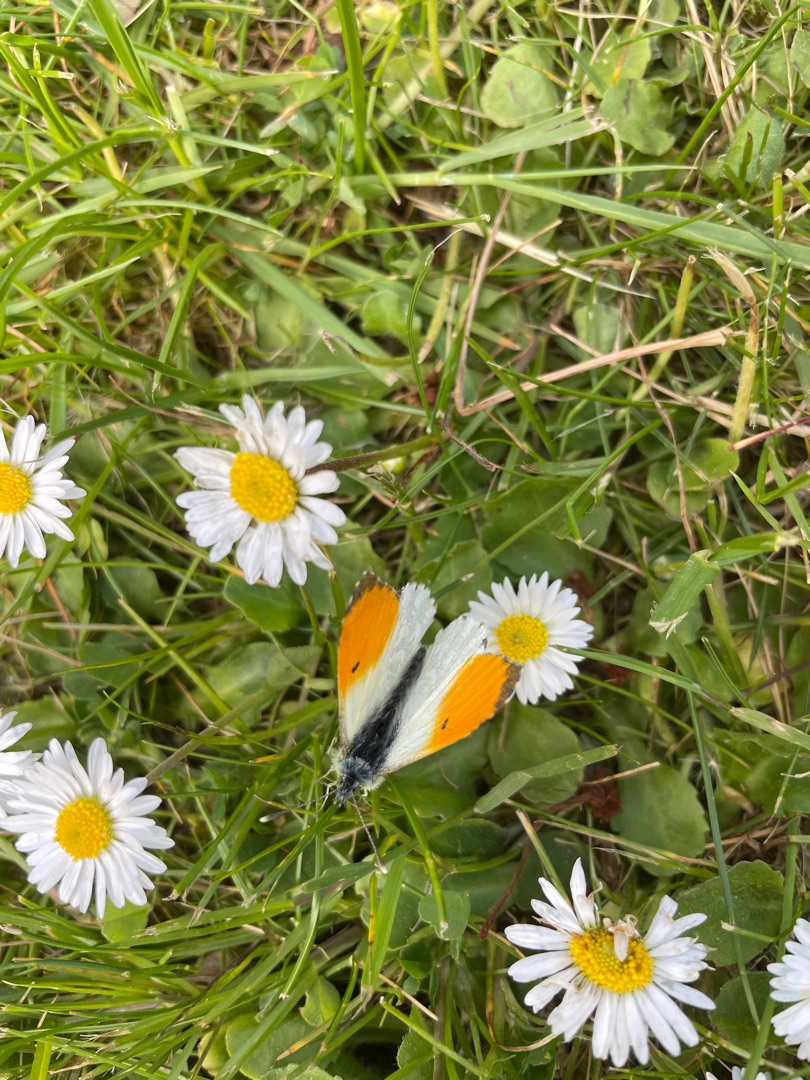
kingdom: Animalia
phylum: Arthropoda
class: Insecta
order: Lepidoptera
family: Pieridae
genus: Anthocharis
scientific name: Anthocharis cardamines
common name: Aurora
